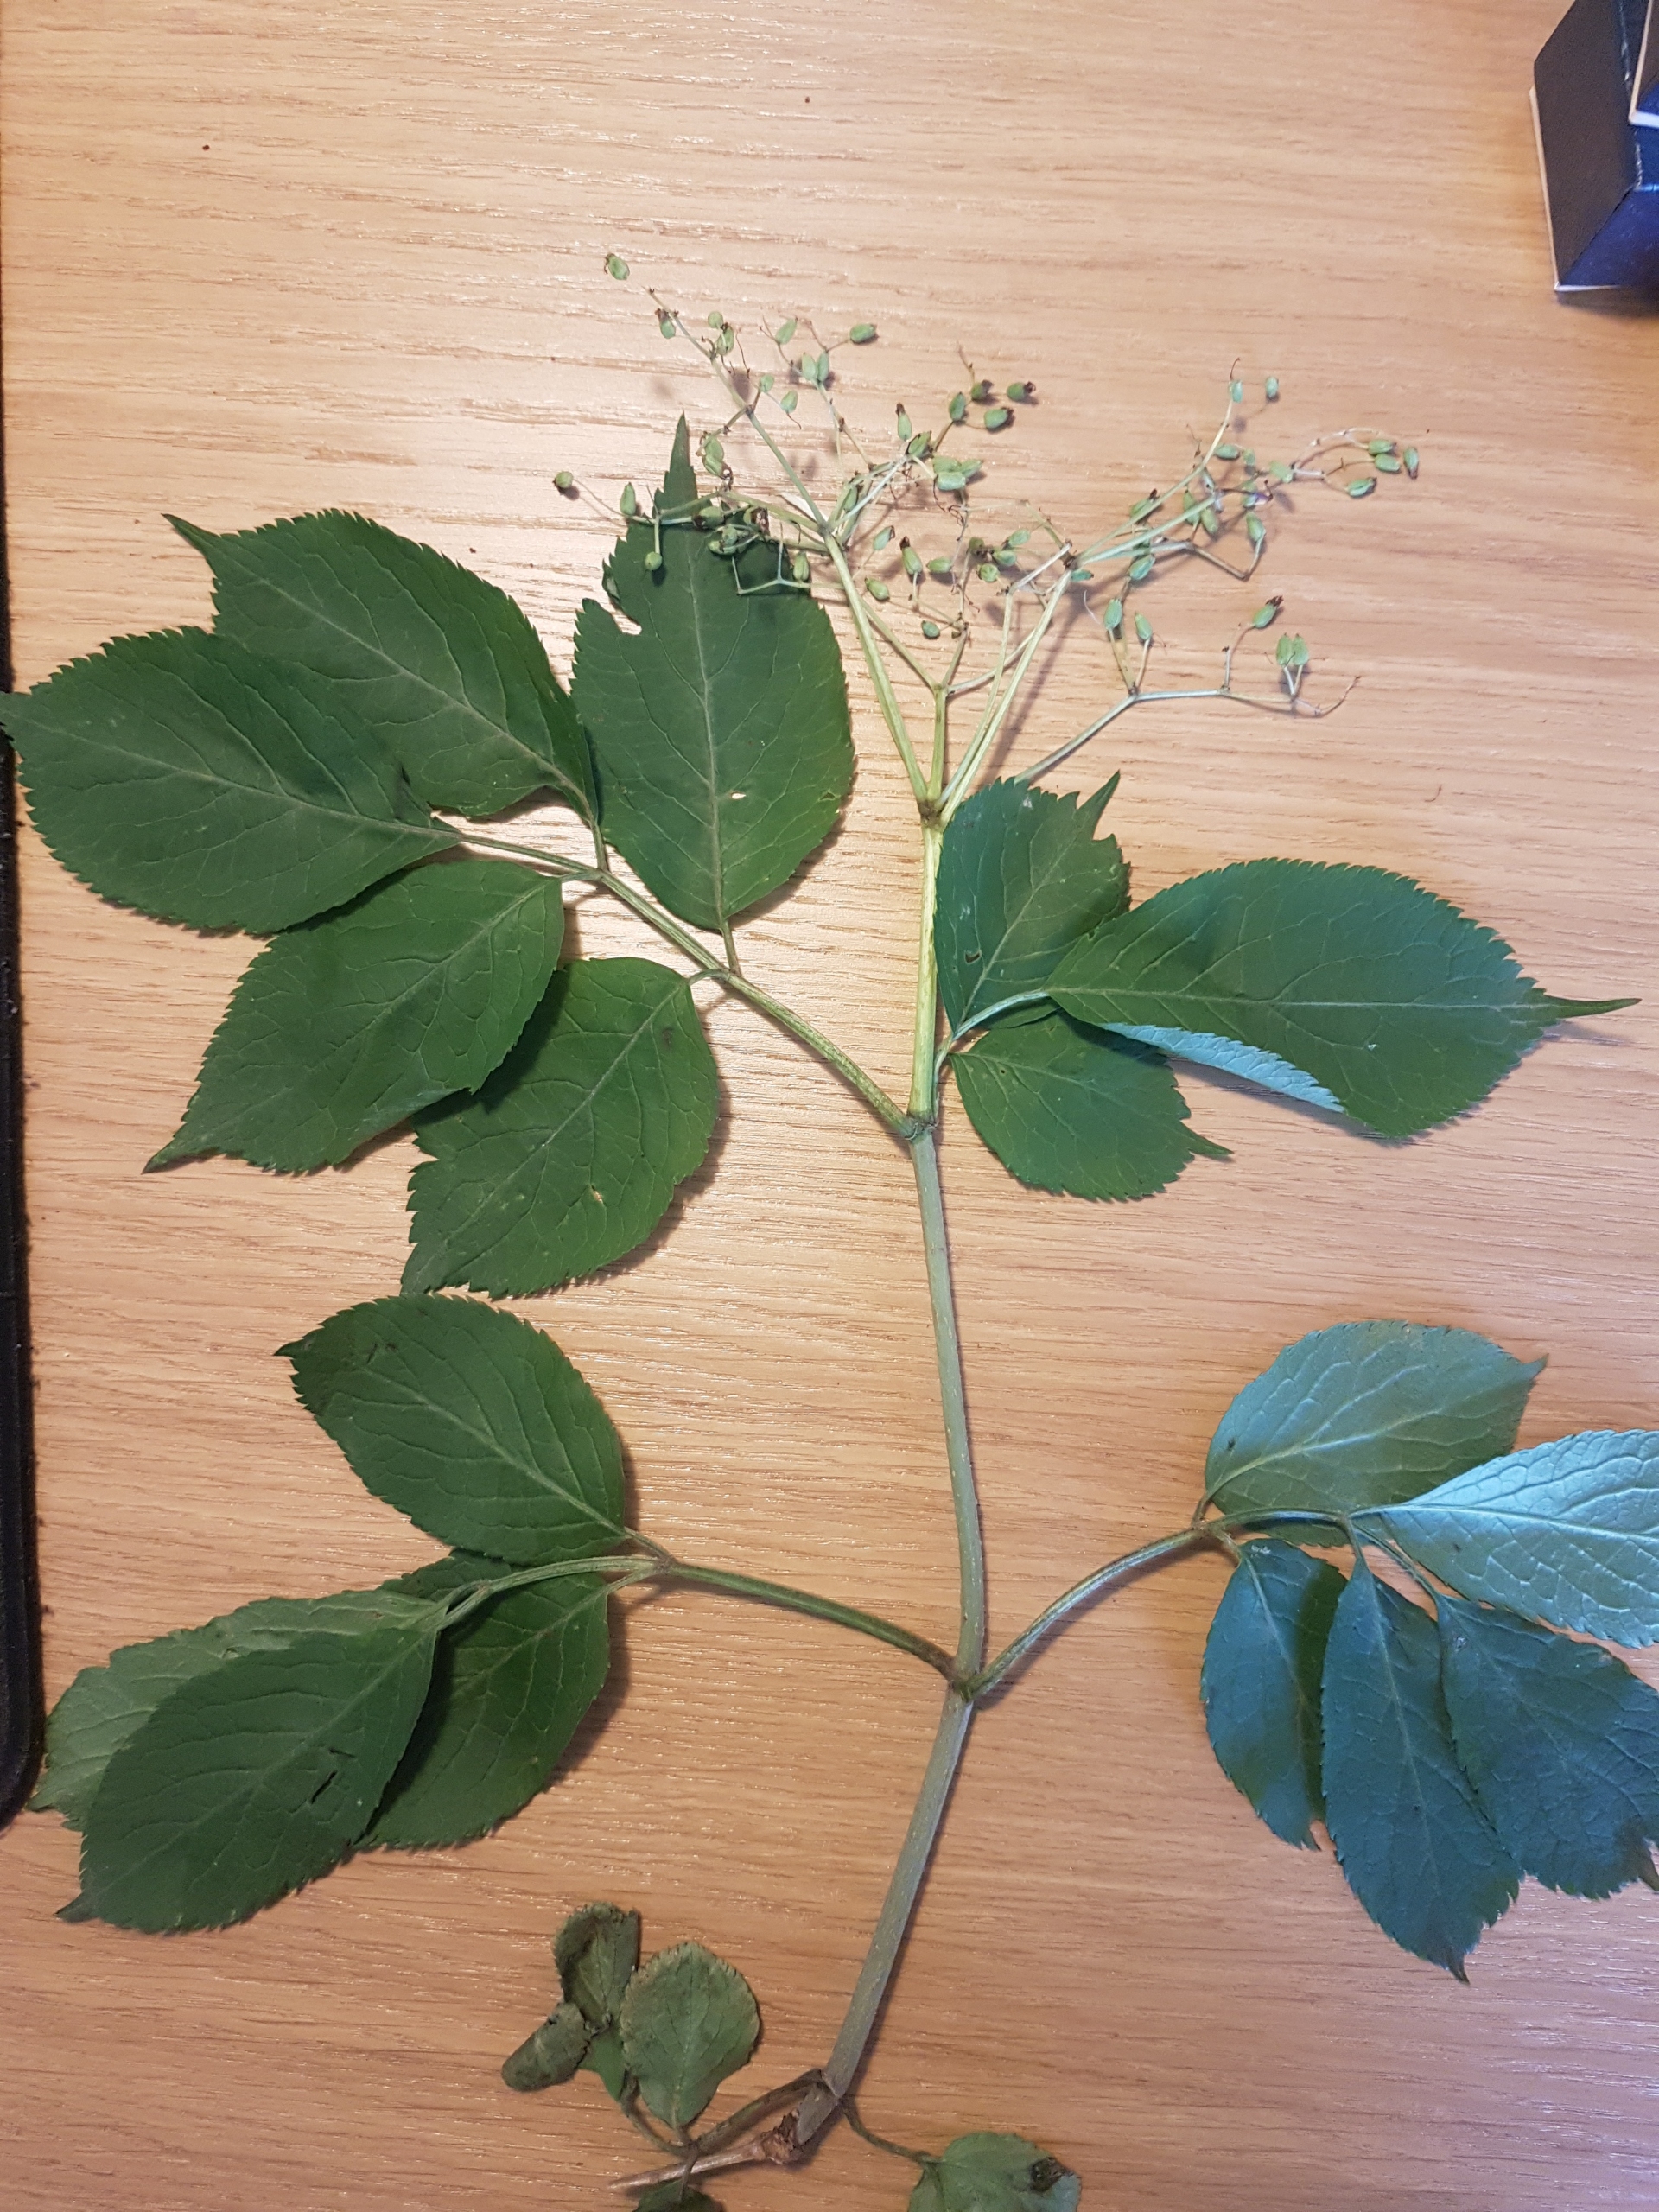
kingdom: Plantae
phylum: Tracheophyta
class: Magnoliopsida
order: Dipsacales
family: Viburnaceae
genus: Sambucus
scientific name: Sambucus nigra
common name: Almindelig hyld
